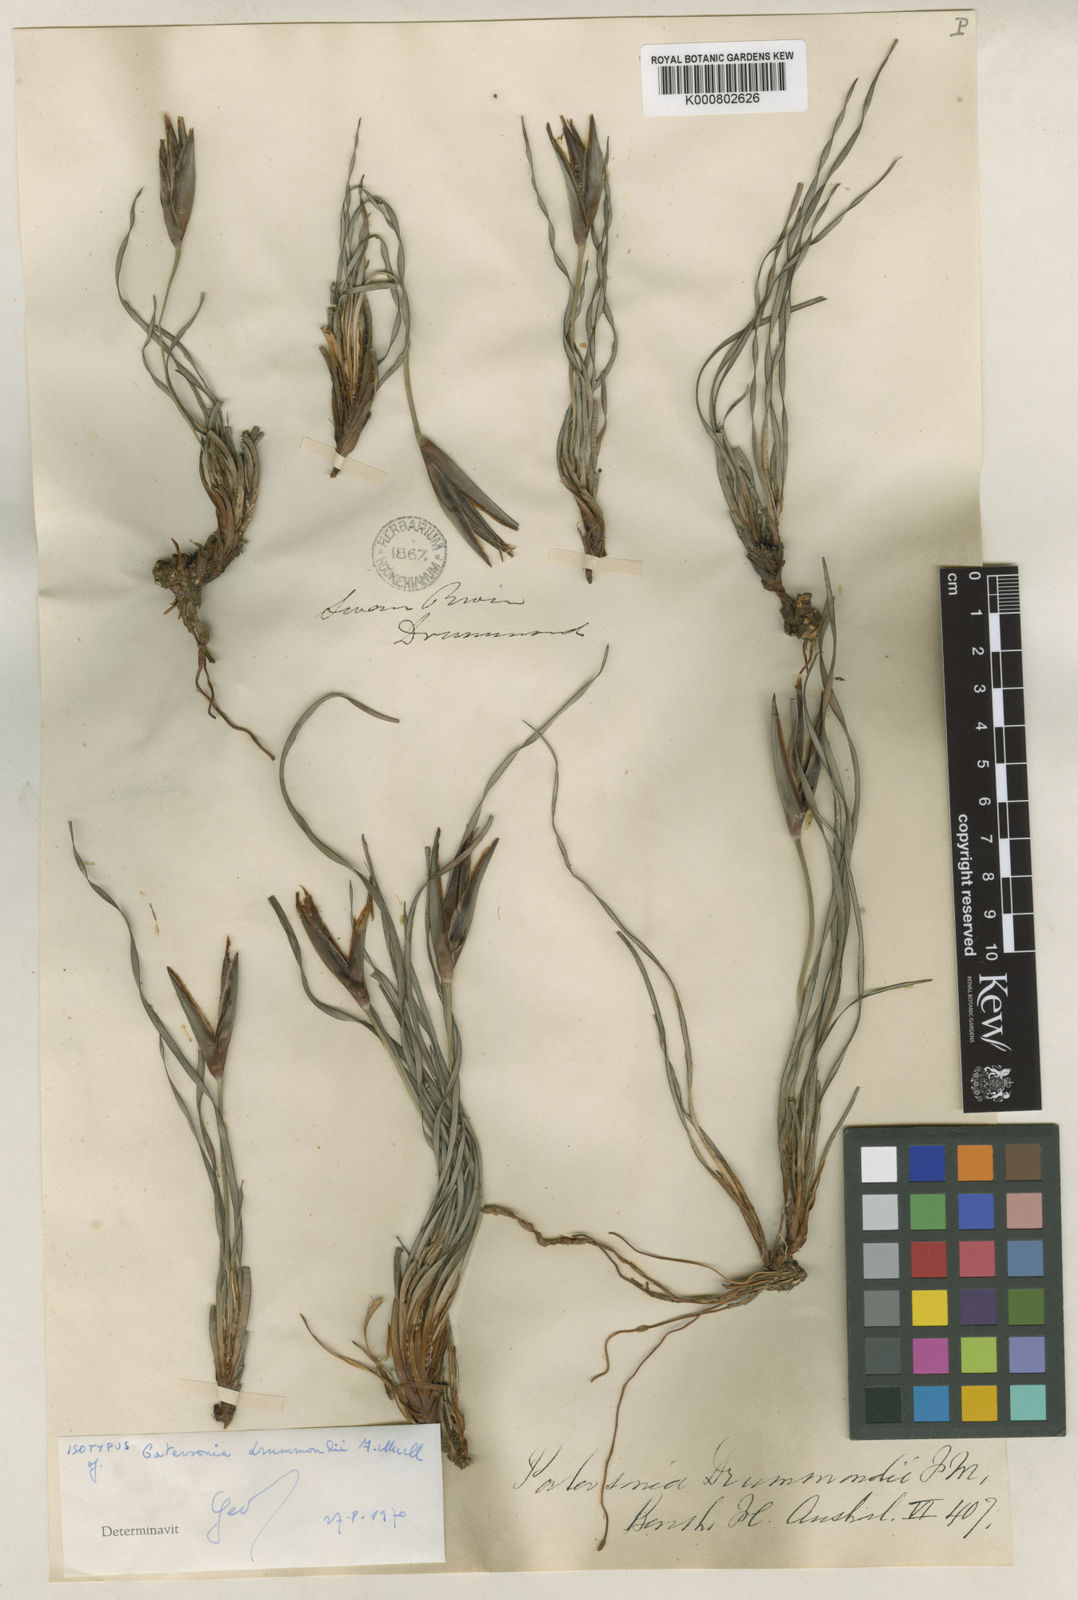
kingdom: Plantae
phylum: Tracheophyta
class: Liliopsida
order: Asparagales
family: Iridaceae
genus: Patersonia
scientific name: Patersonia drummondii
